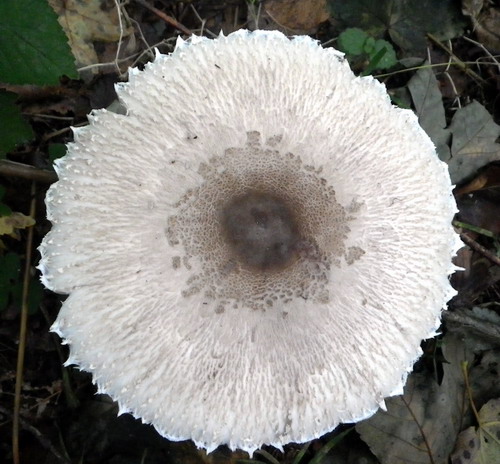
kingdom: Fungi
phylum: Basidiomycota
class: Agaricomycetes
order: Agaricales
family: Agaricaceae
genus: Macrolepiota
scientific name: Macrolepiota mastoidea
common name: puklet kæmpeparasolhat
